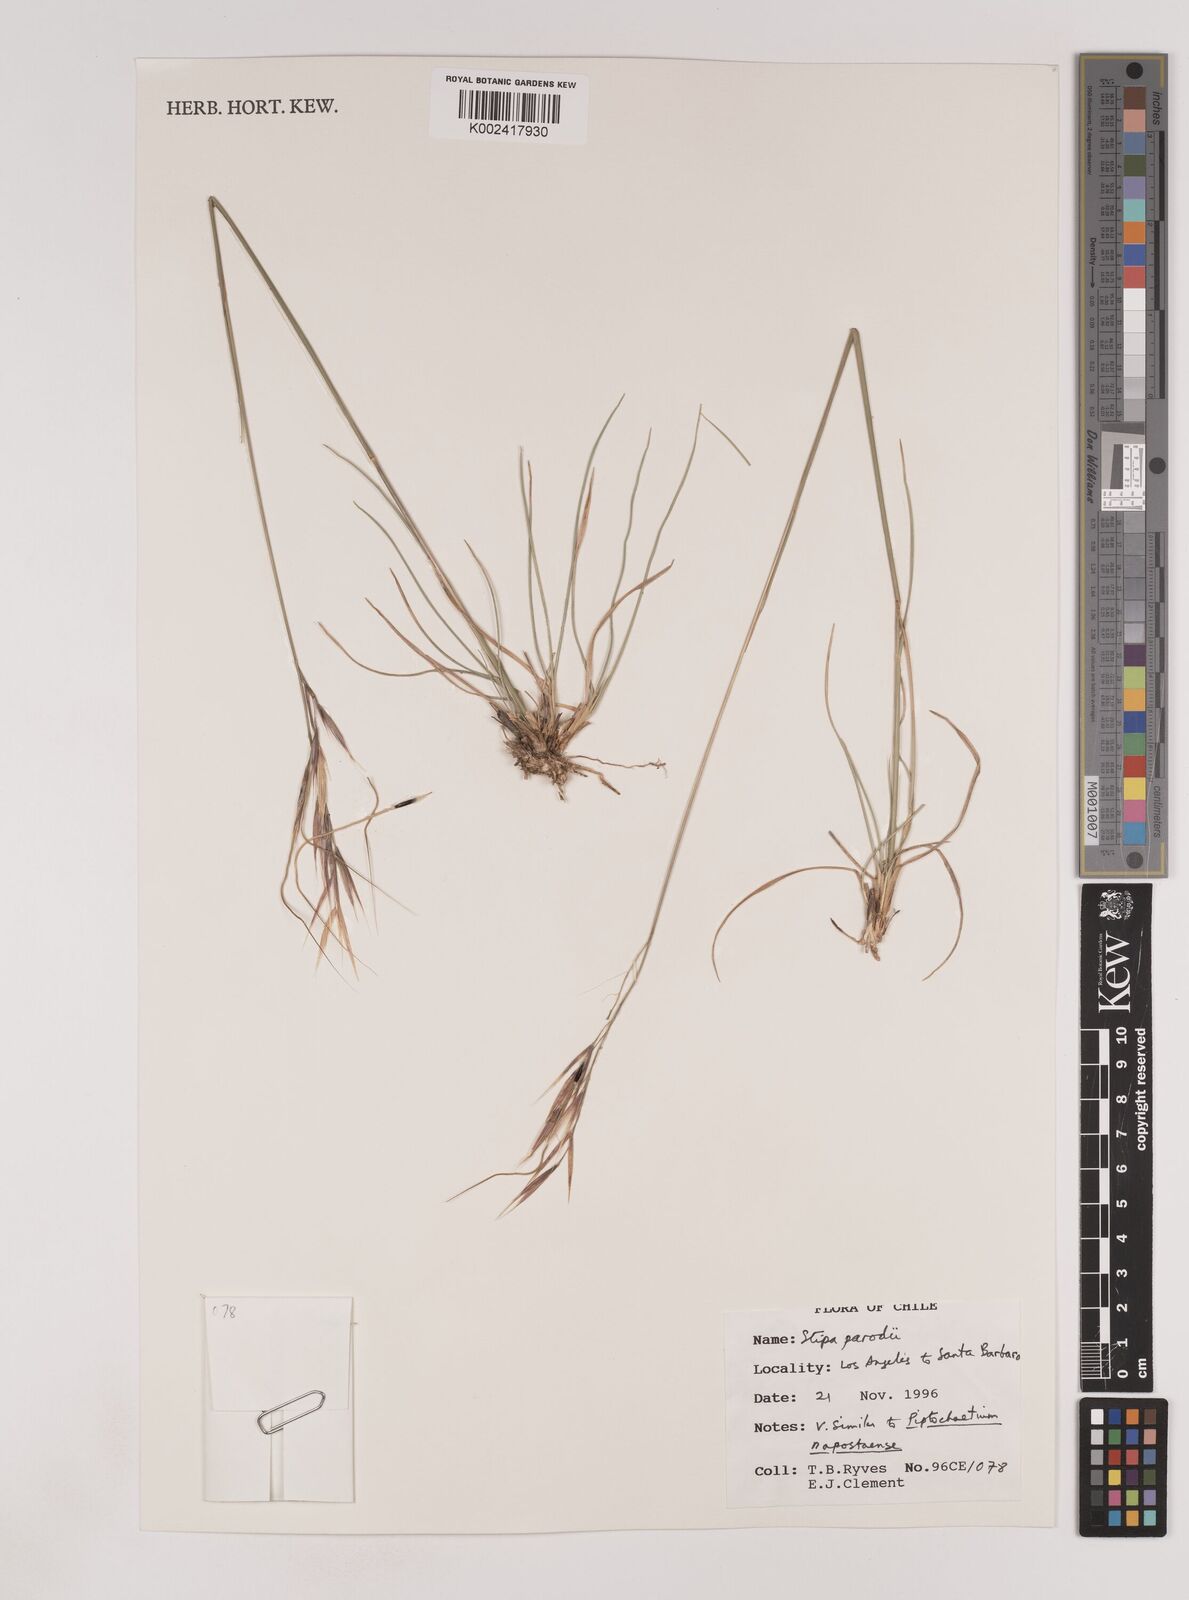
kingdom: Plantae
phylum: Tracheophyta
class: Liliopsida
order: Poales
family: Poaceae
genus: Nassella
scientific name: Nassella parodii
